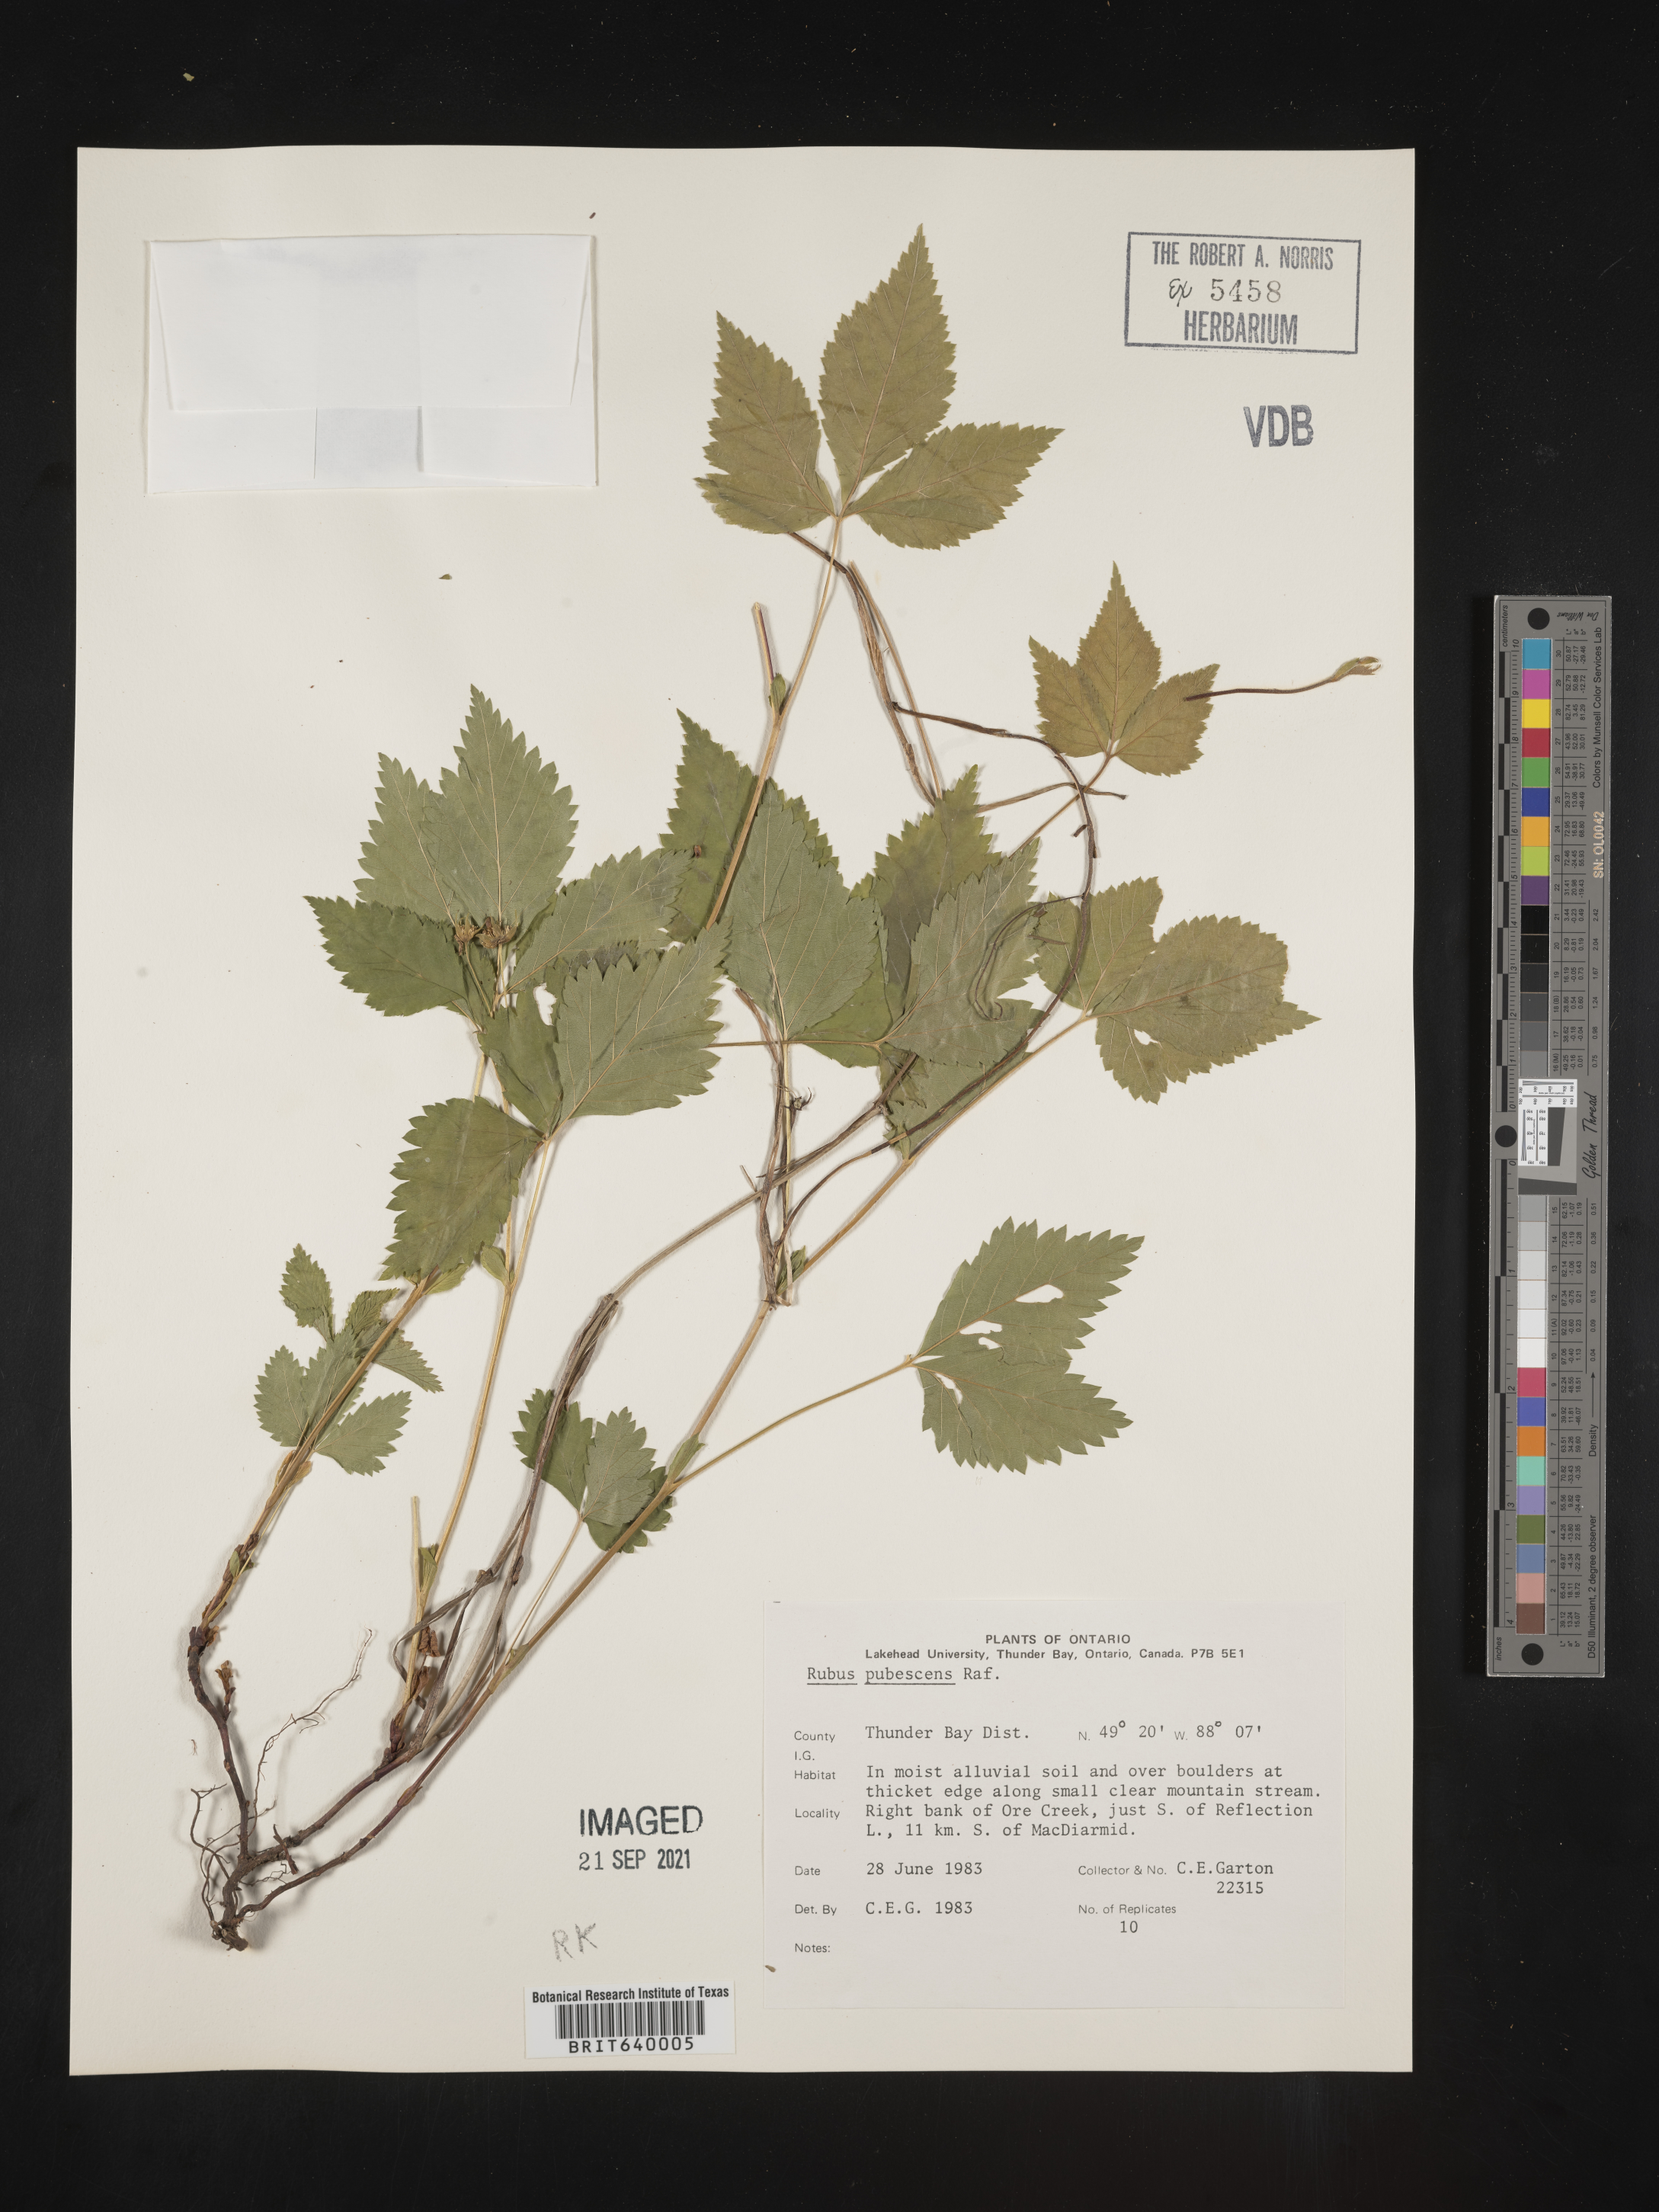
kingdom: Plantae
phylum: Tracheophyta
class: Magnoliopsida
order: Rosales
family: Rosaceae
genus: Rubus
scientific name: Rubus
